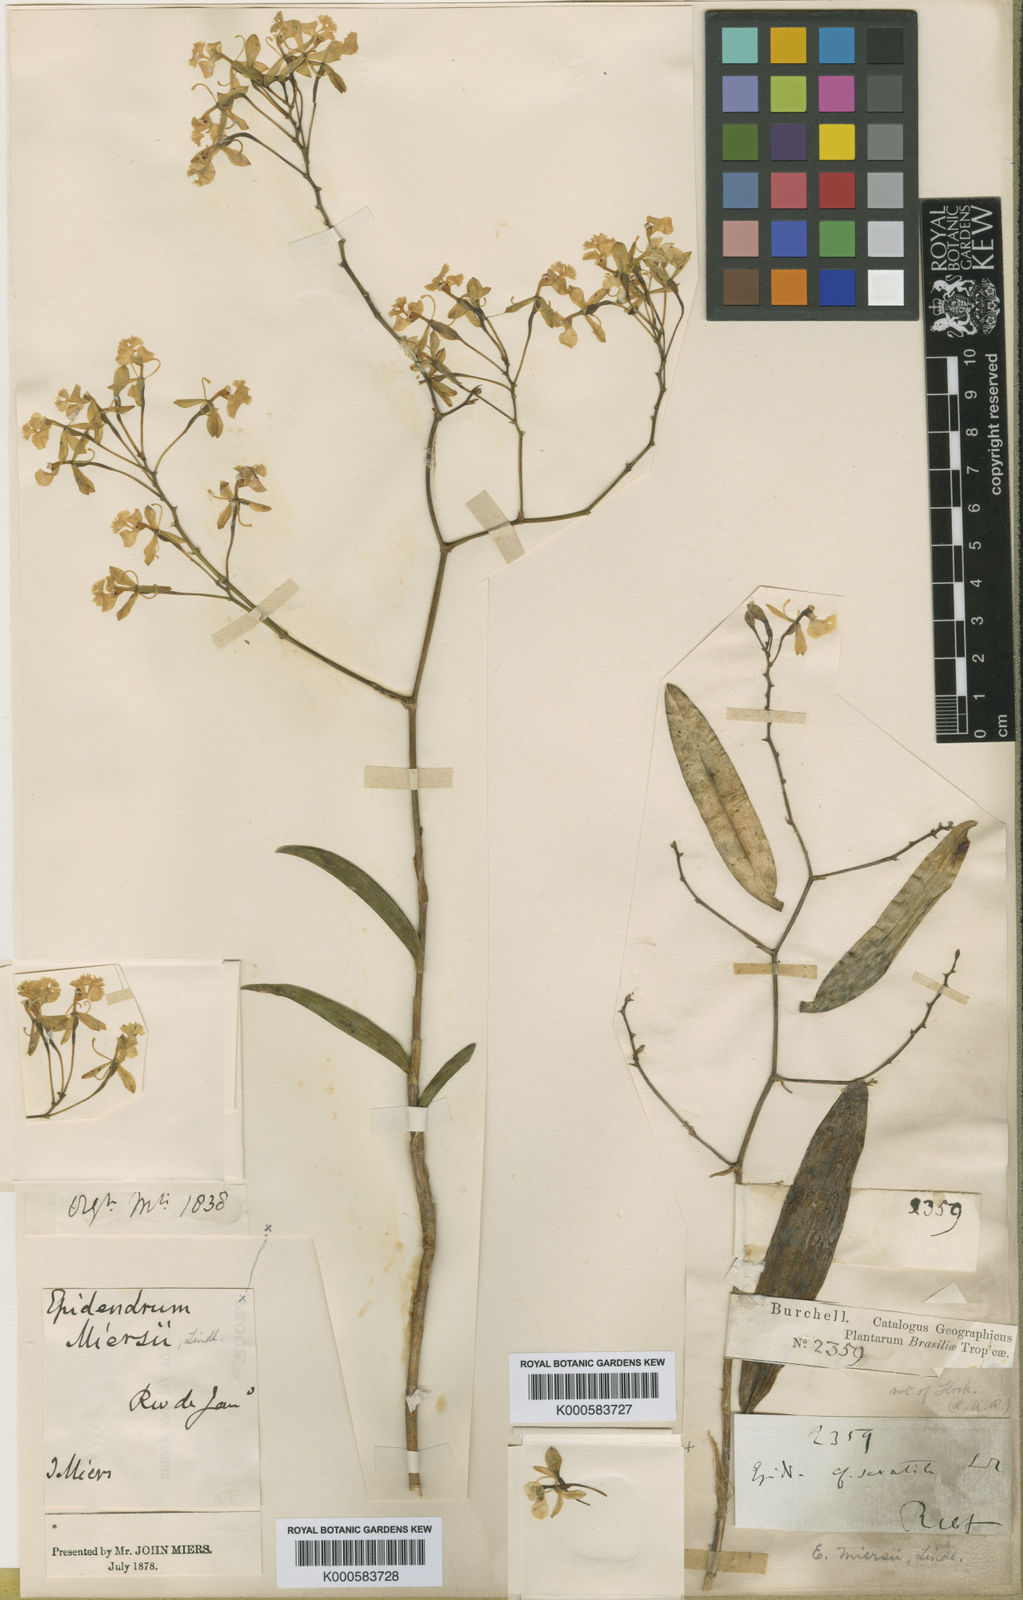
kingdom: Plantae
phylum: Tracheophyta
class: Liliopsida
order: Asparagales
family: Orchidaceae
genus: Epidendrum
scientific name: Epidendrum saxatile
